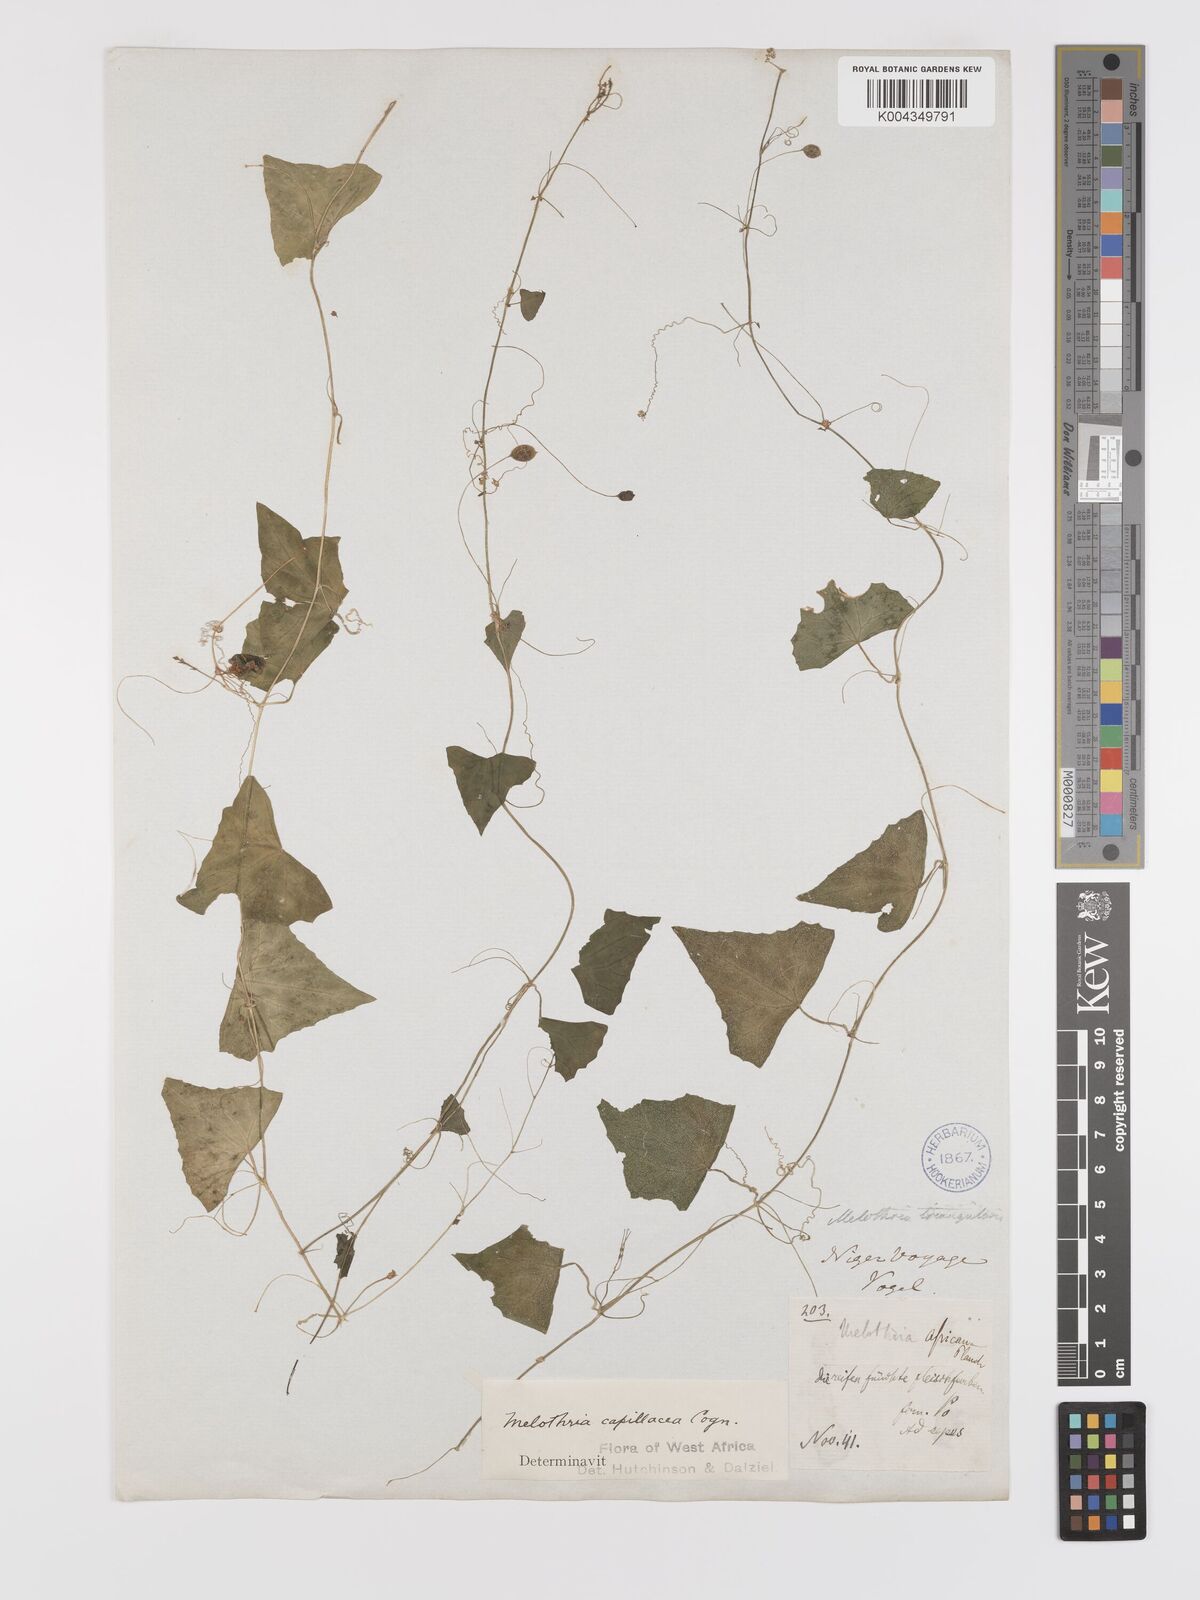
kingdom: Plantae
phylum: Tracheophyta
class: Magnoliopsida
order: Cucurbitales
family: Cucurbitaceae
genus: Zehneria
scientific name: Zehneria capillacea
